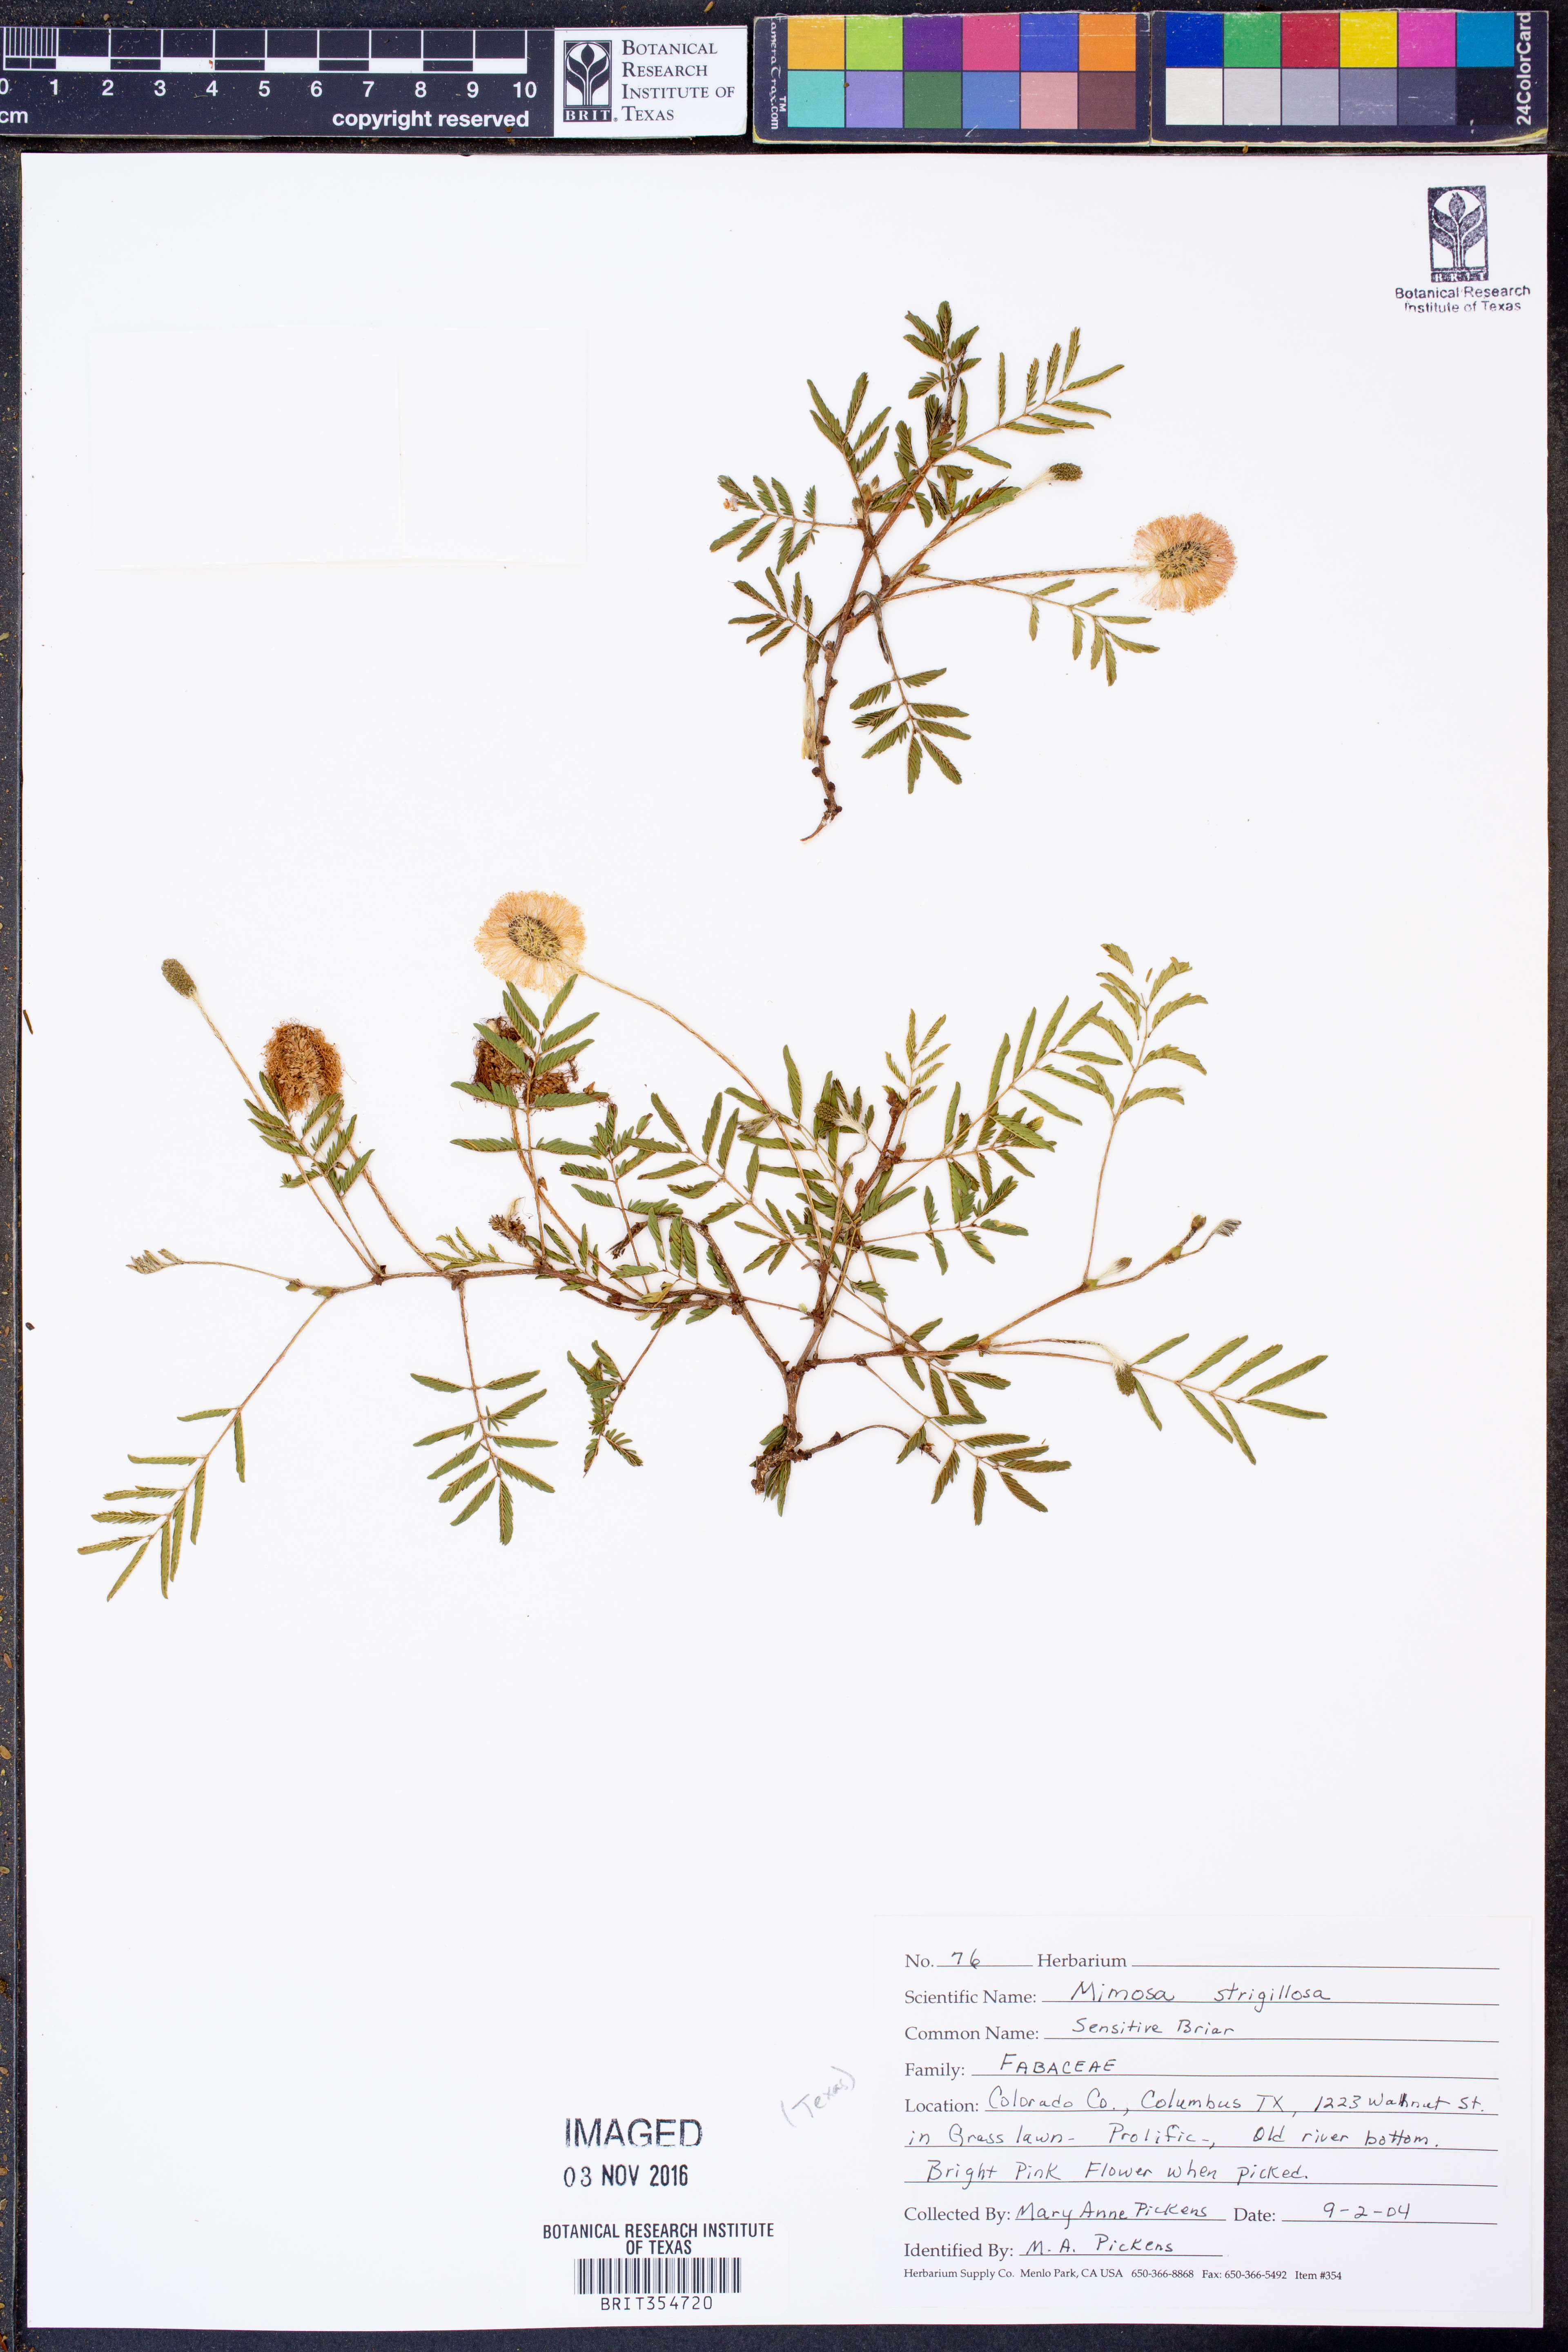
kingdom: Plantae
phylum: Tracheophyta
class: Magnoliopsida
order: Fabales
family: Fabaceae
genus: Mimosa
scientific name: Mimosa strigillosa
